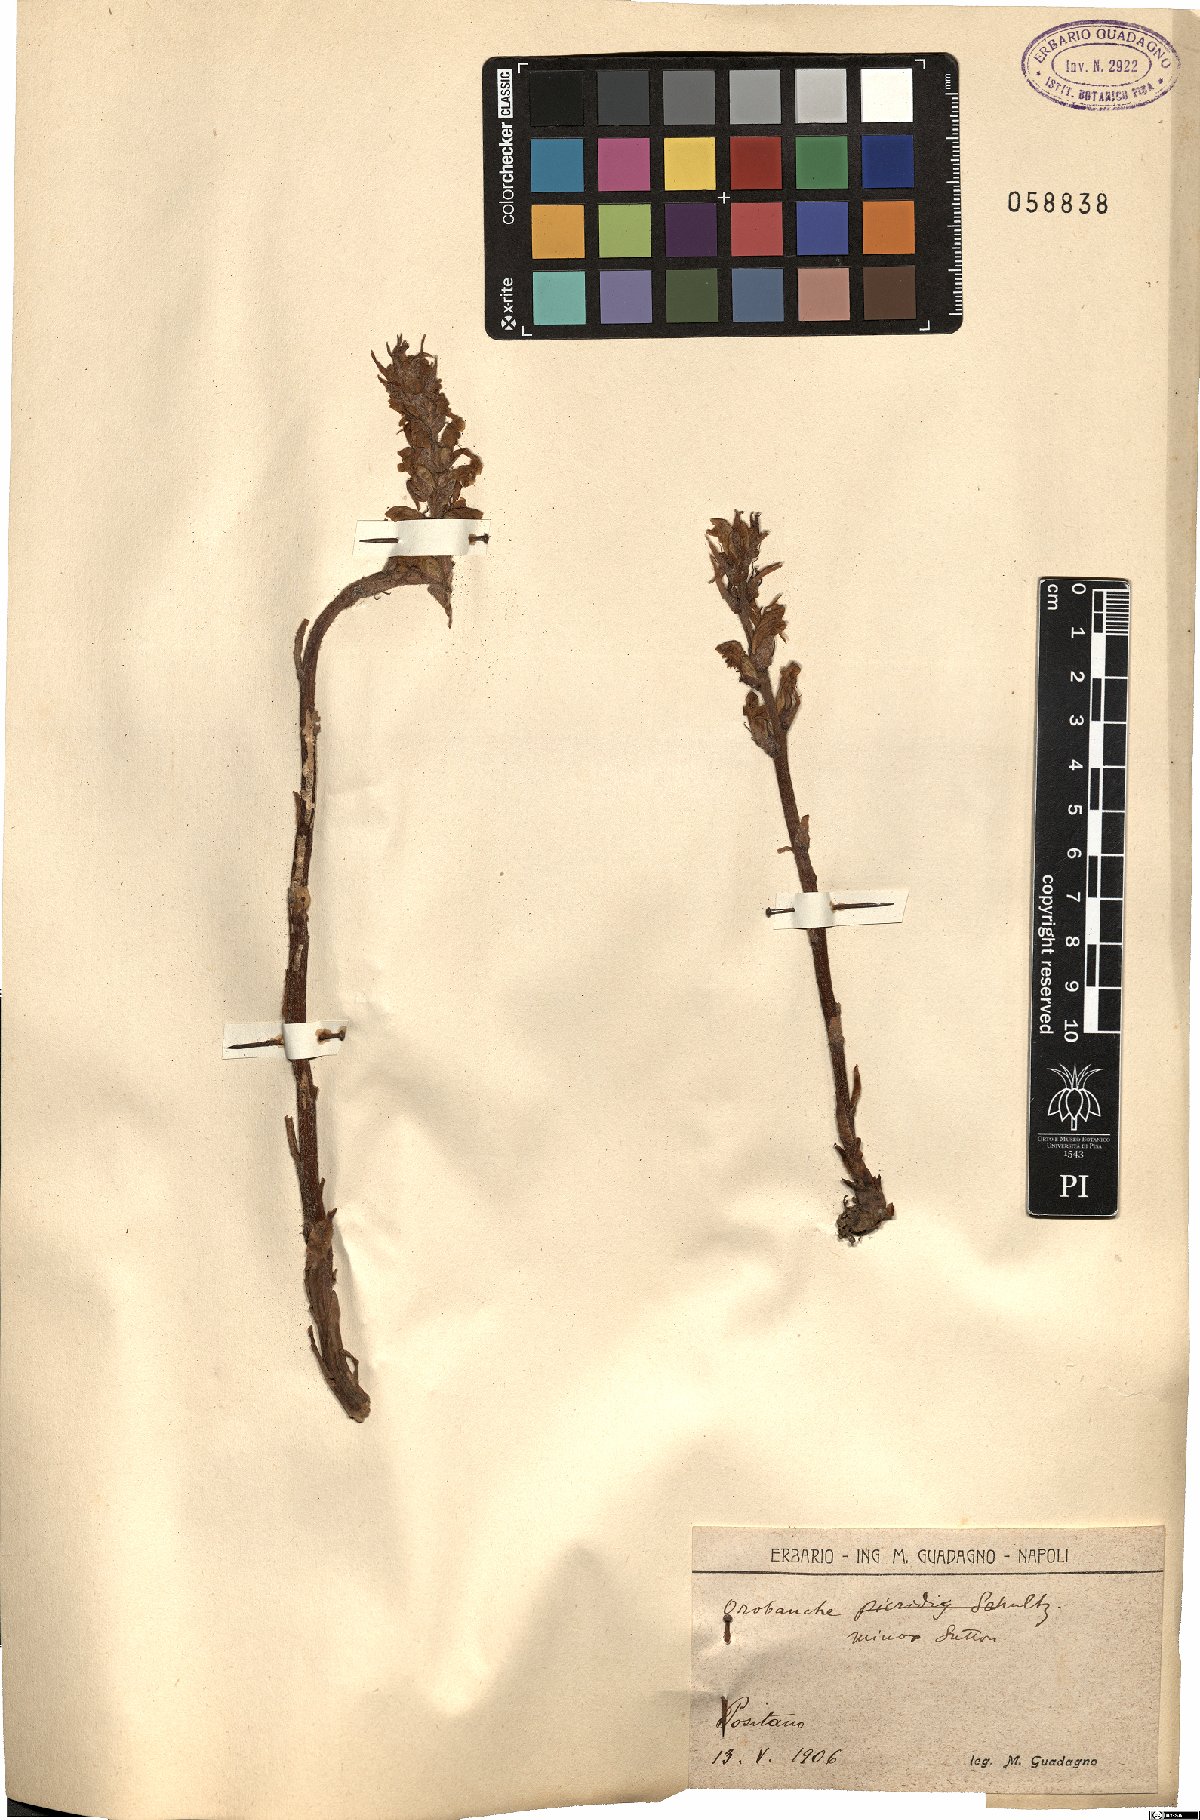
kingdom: Plantae
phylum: Tracheophyta
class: Magnoliopsida
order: Lamiales
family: Orobanchaceae
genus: Orobanche
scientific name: Orobanche minor
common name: Common broomrape
